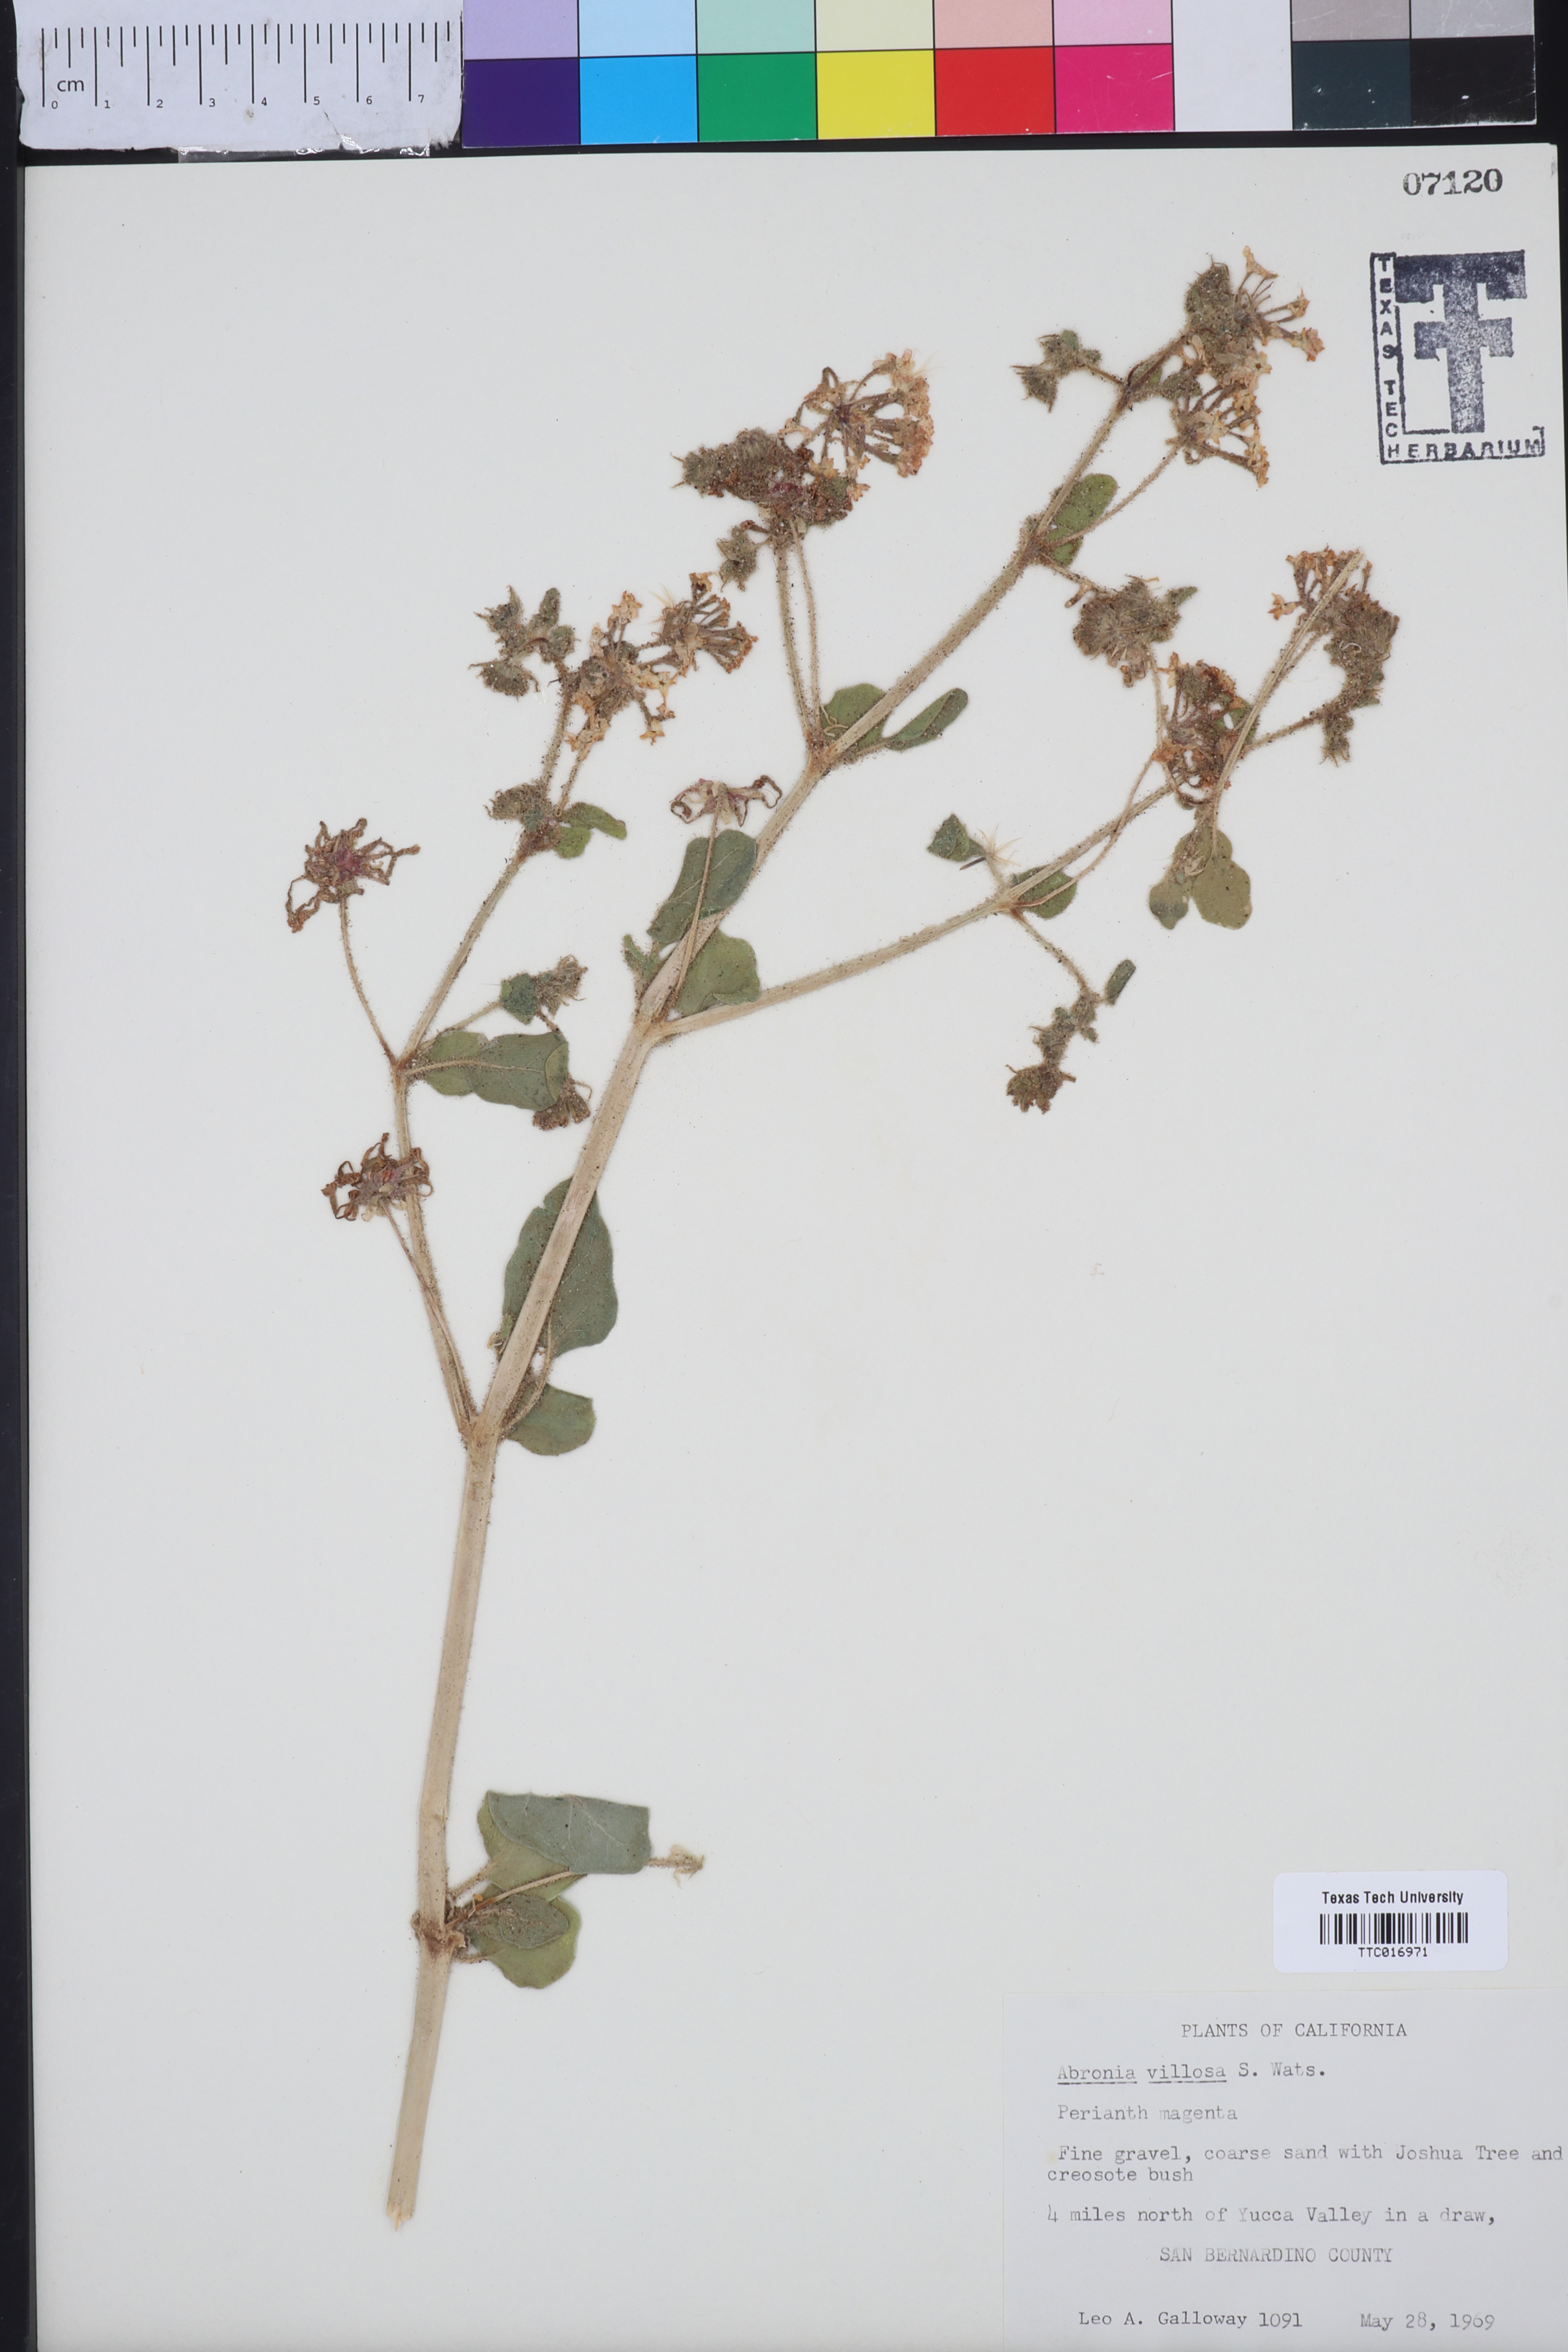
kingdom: Plantae
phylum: Tracheophyta
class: Magnoliopsida
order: Caryophyllales
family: Nyctaginaceae
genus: Abronia
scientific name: Abronia villosa
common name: Desert sand-verbena
